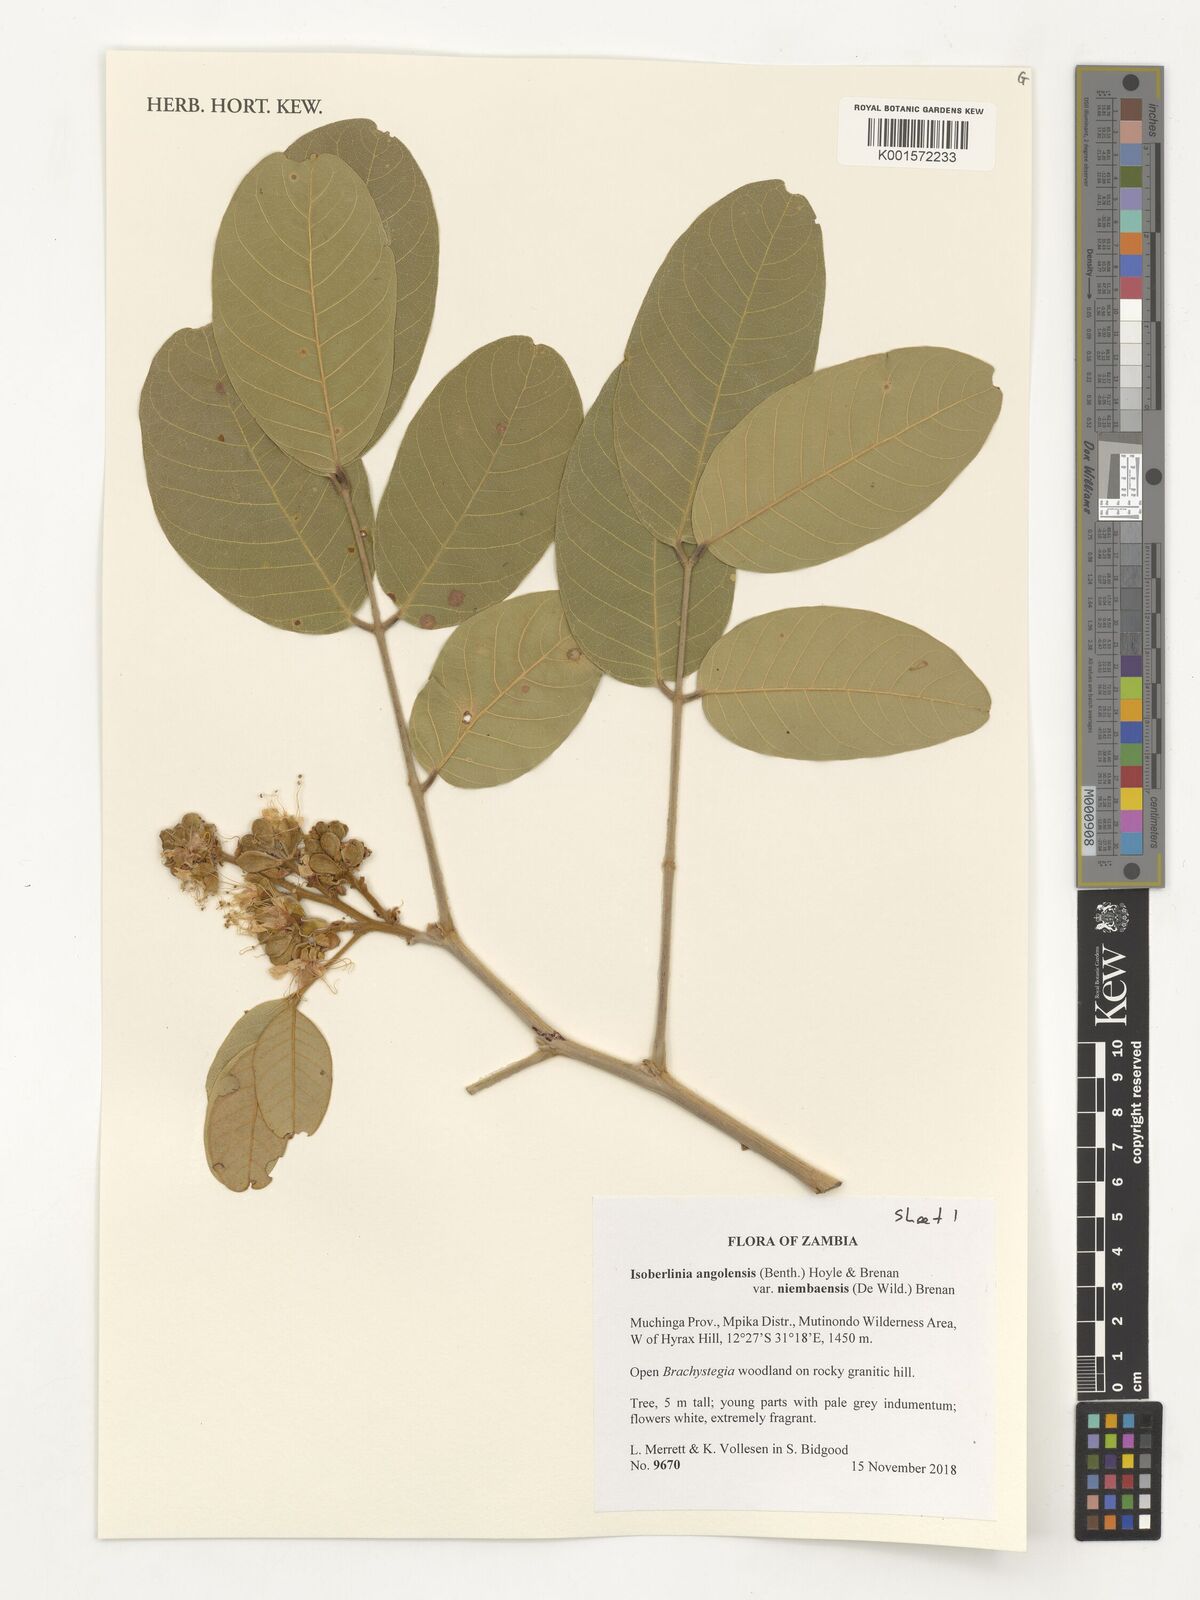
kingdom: Plantae
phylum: Tracheophyta
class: Magnoliopsida
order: Fabales
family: Fabaceae
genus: Isoberlinia
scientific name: Isoberlinia angolensis
